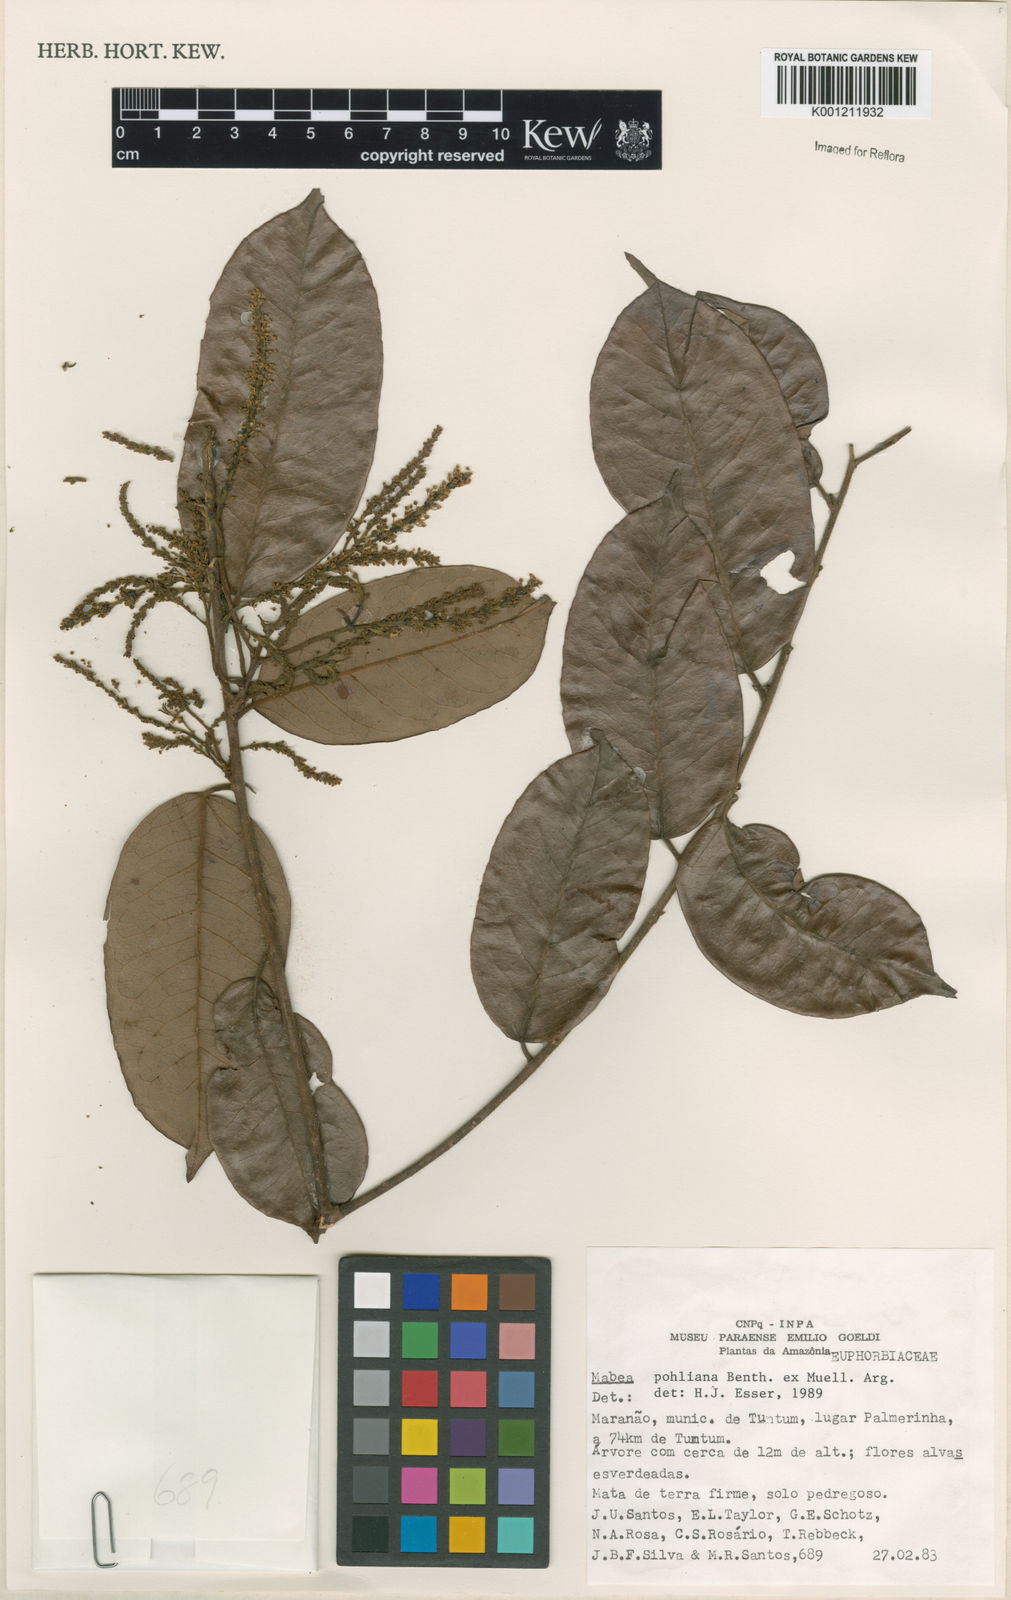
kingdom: Plantae
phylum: Tracheophyta
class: Magnoliopsida
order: Malpighiales
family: Euphorbiaceae
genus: Mabea
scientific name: Mabea
